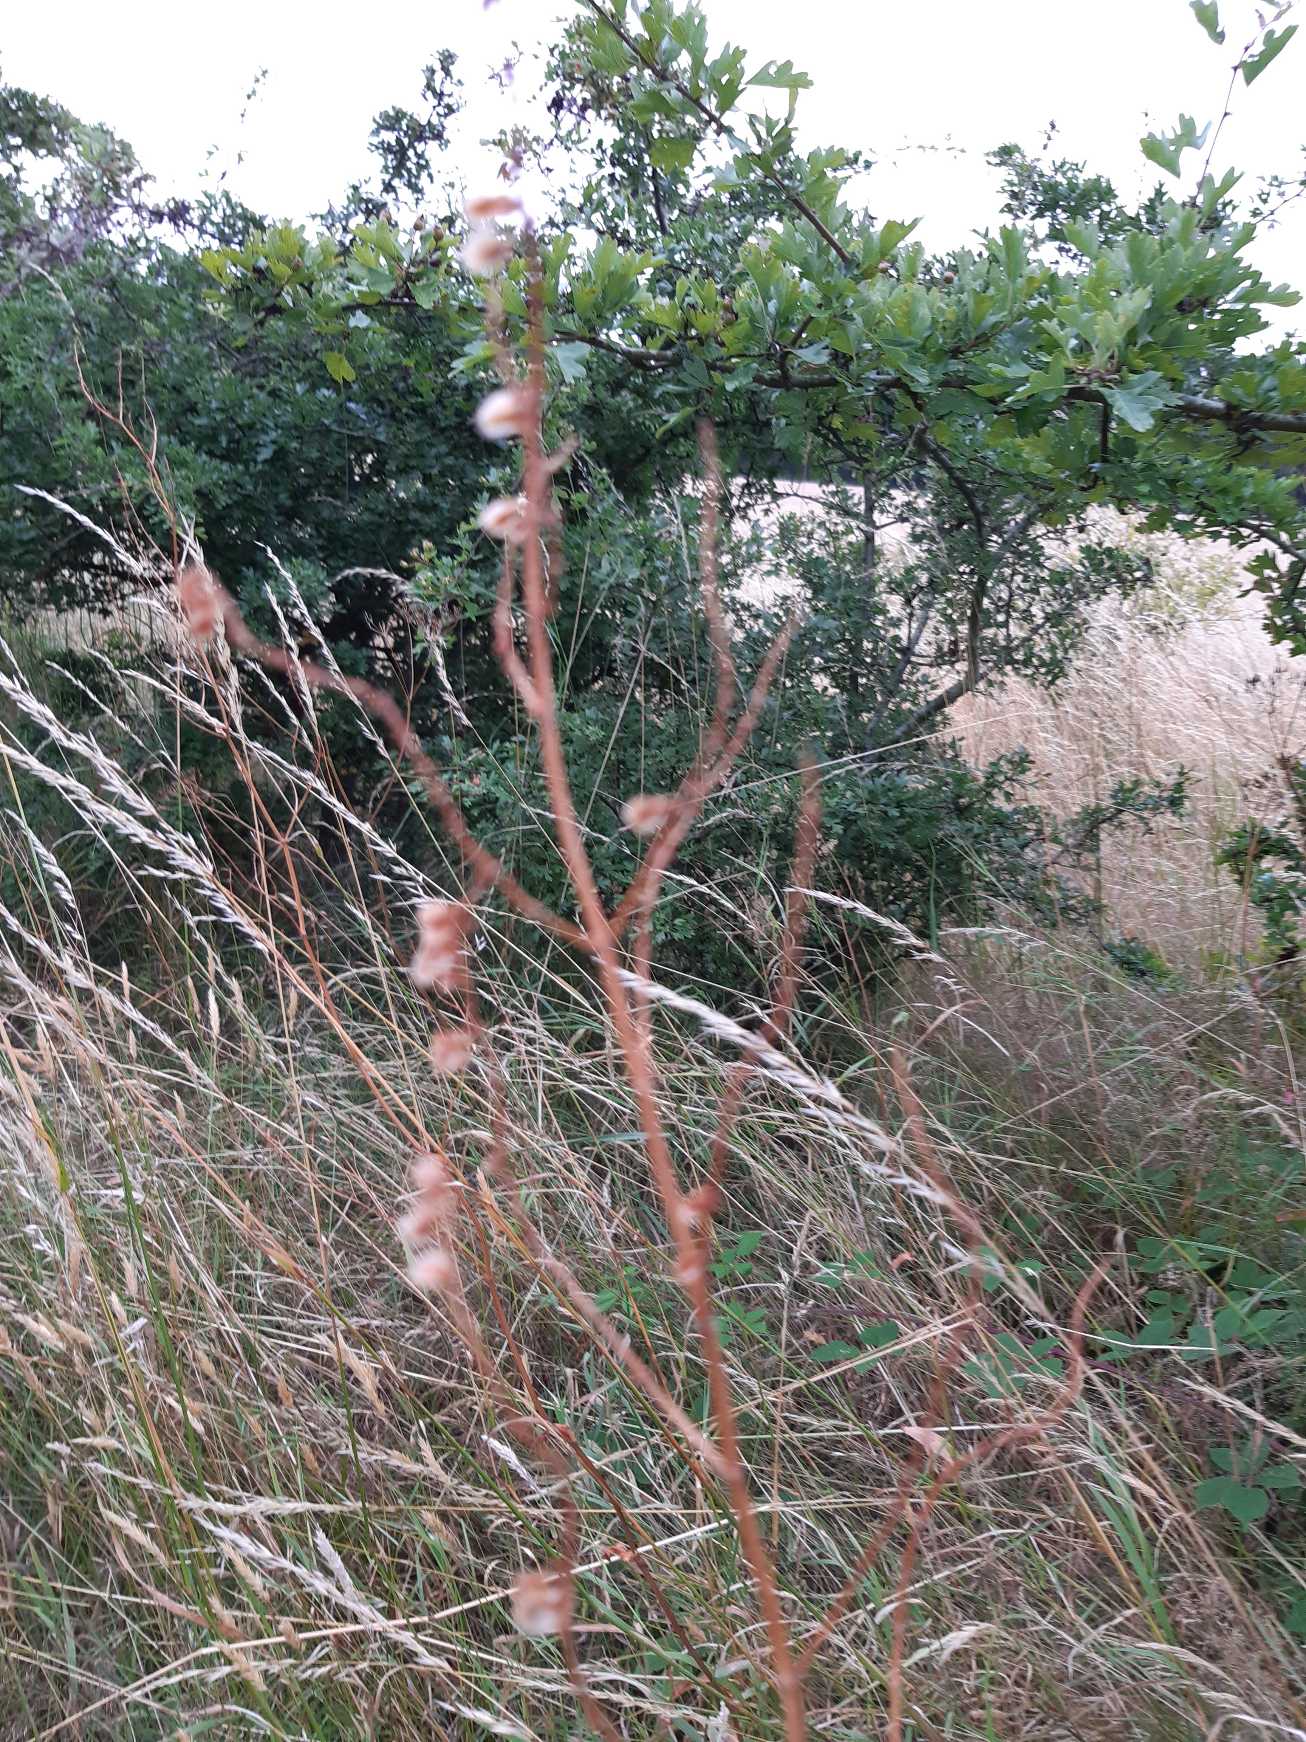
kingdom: Plantae
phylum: Tracheophyta
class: Magnoliopsida
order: Caryophyllales
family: Polygonaceae
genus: Rumex
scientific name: Rumex acetosa
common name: Almindelig syre
